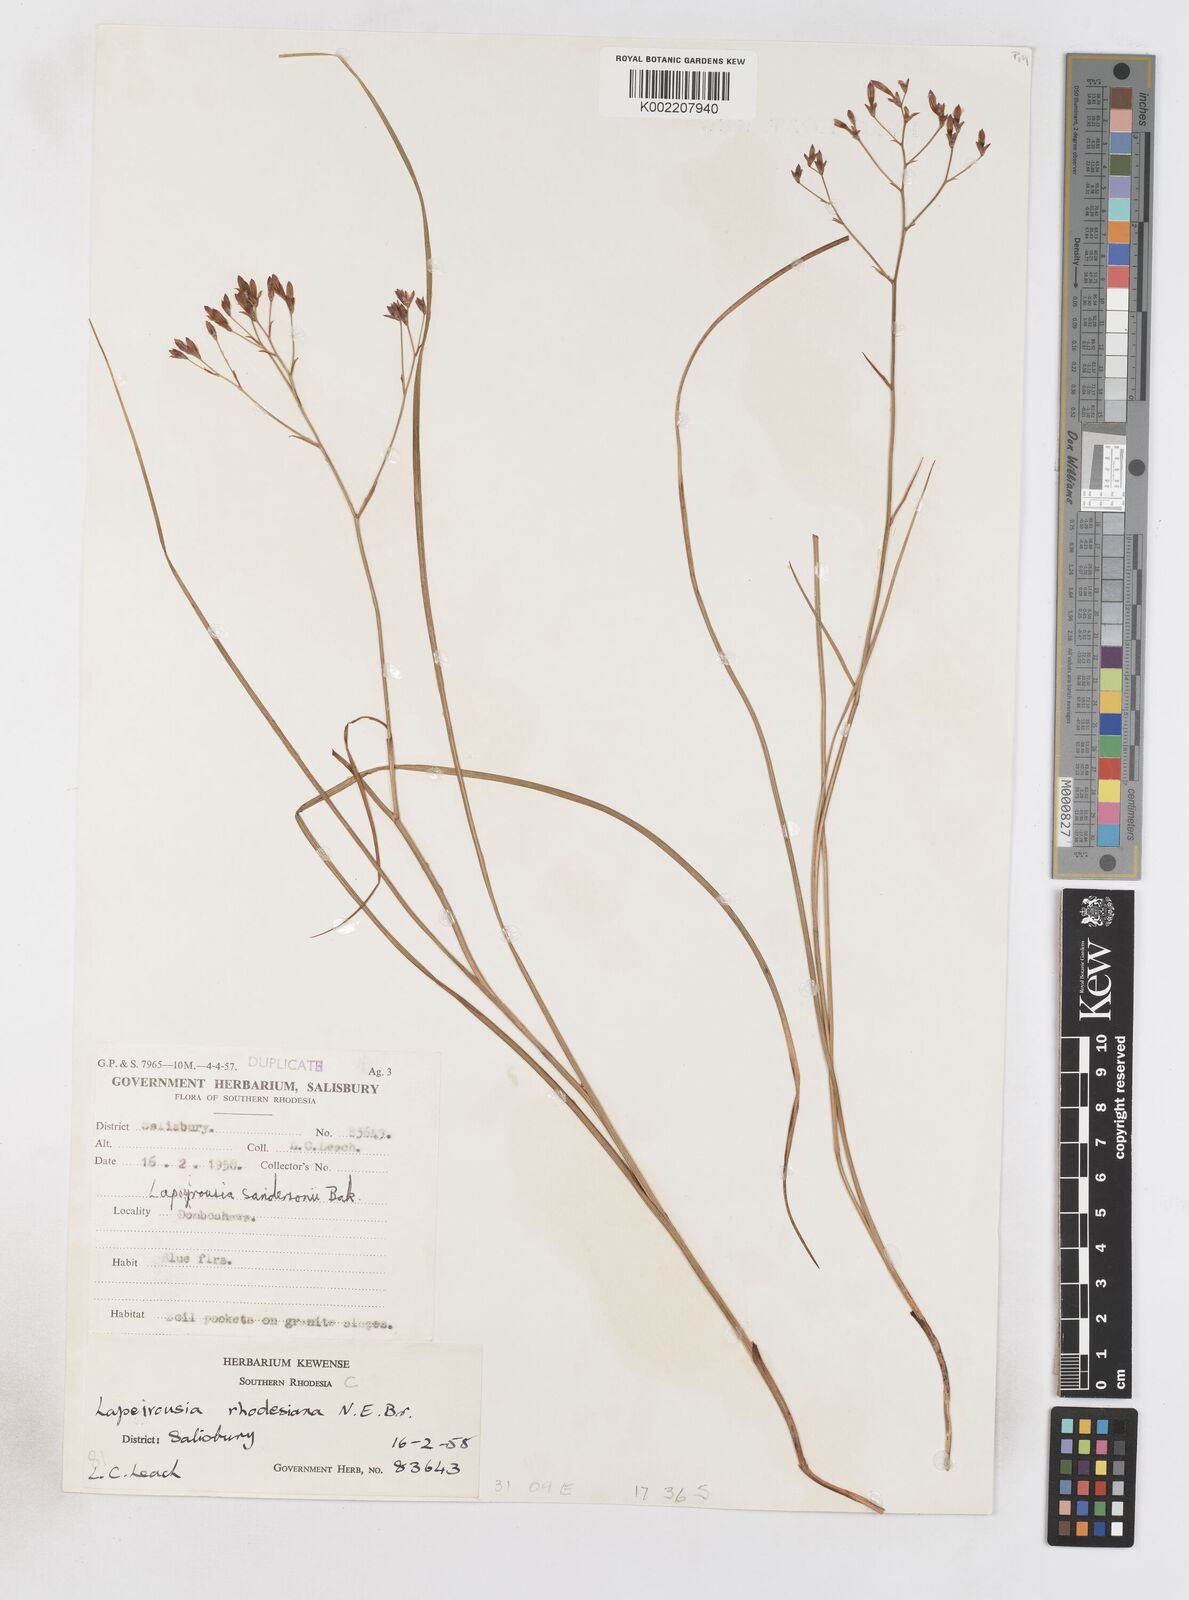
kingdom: Plantae
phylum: Tracheophyta
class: Liliopsida
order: Asparagales
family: Iridaceae
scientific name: Iridaceae
